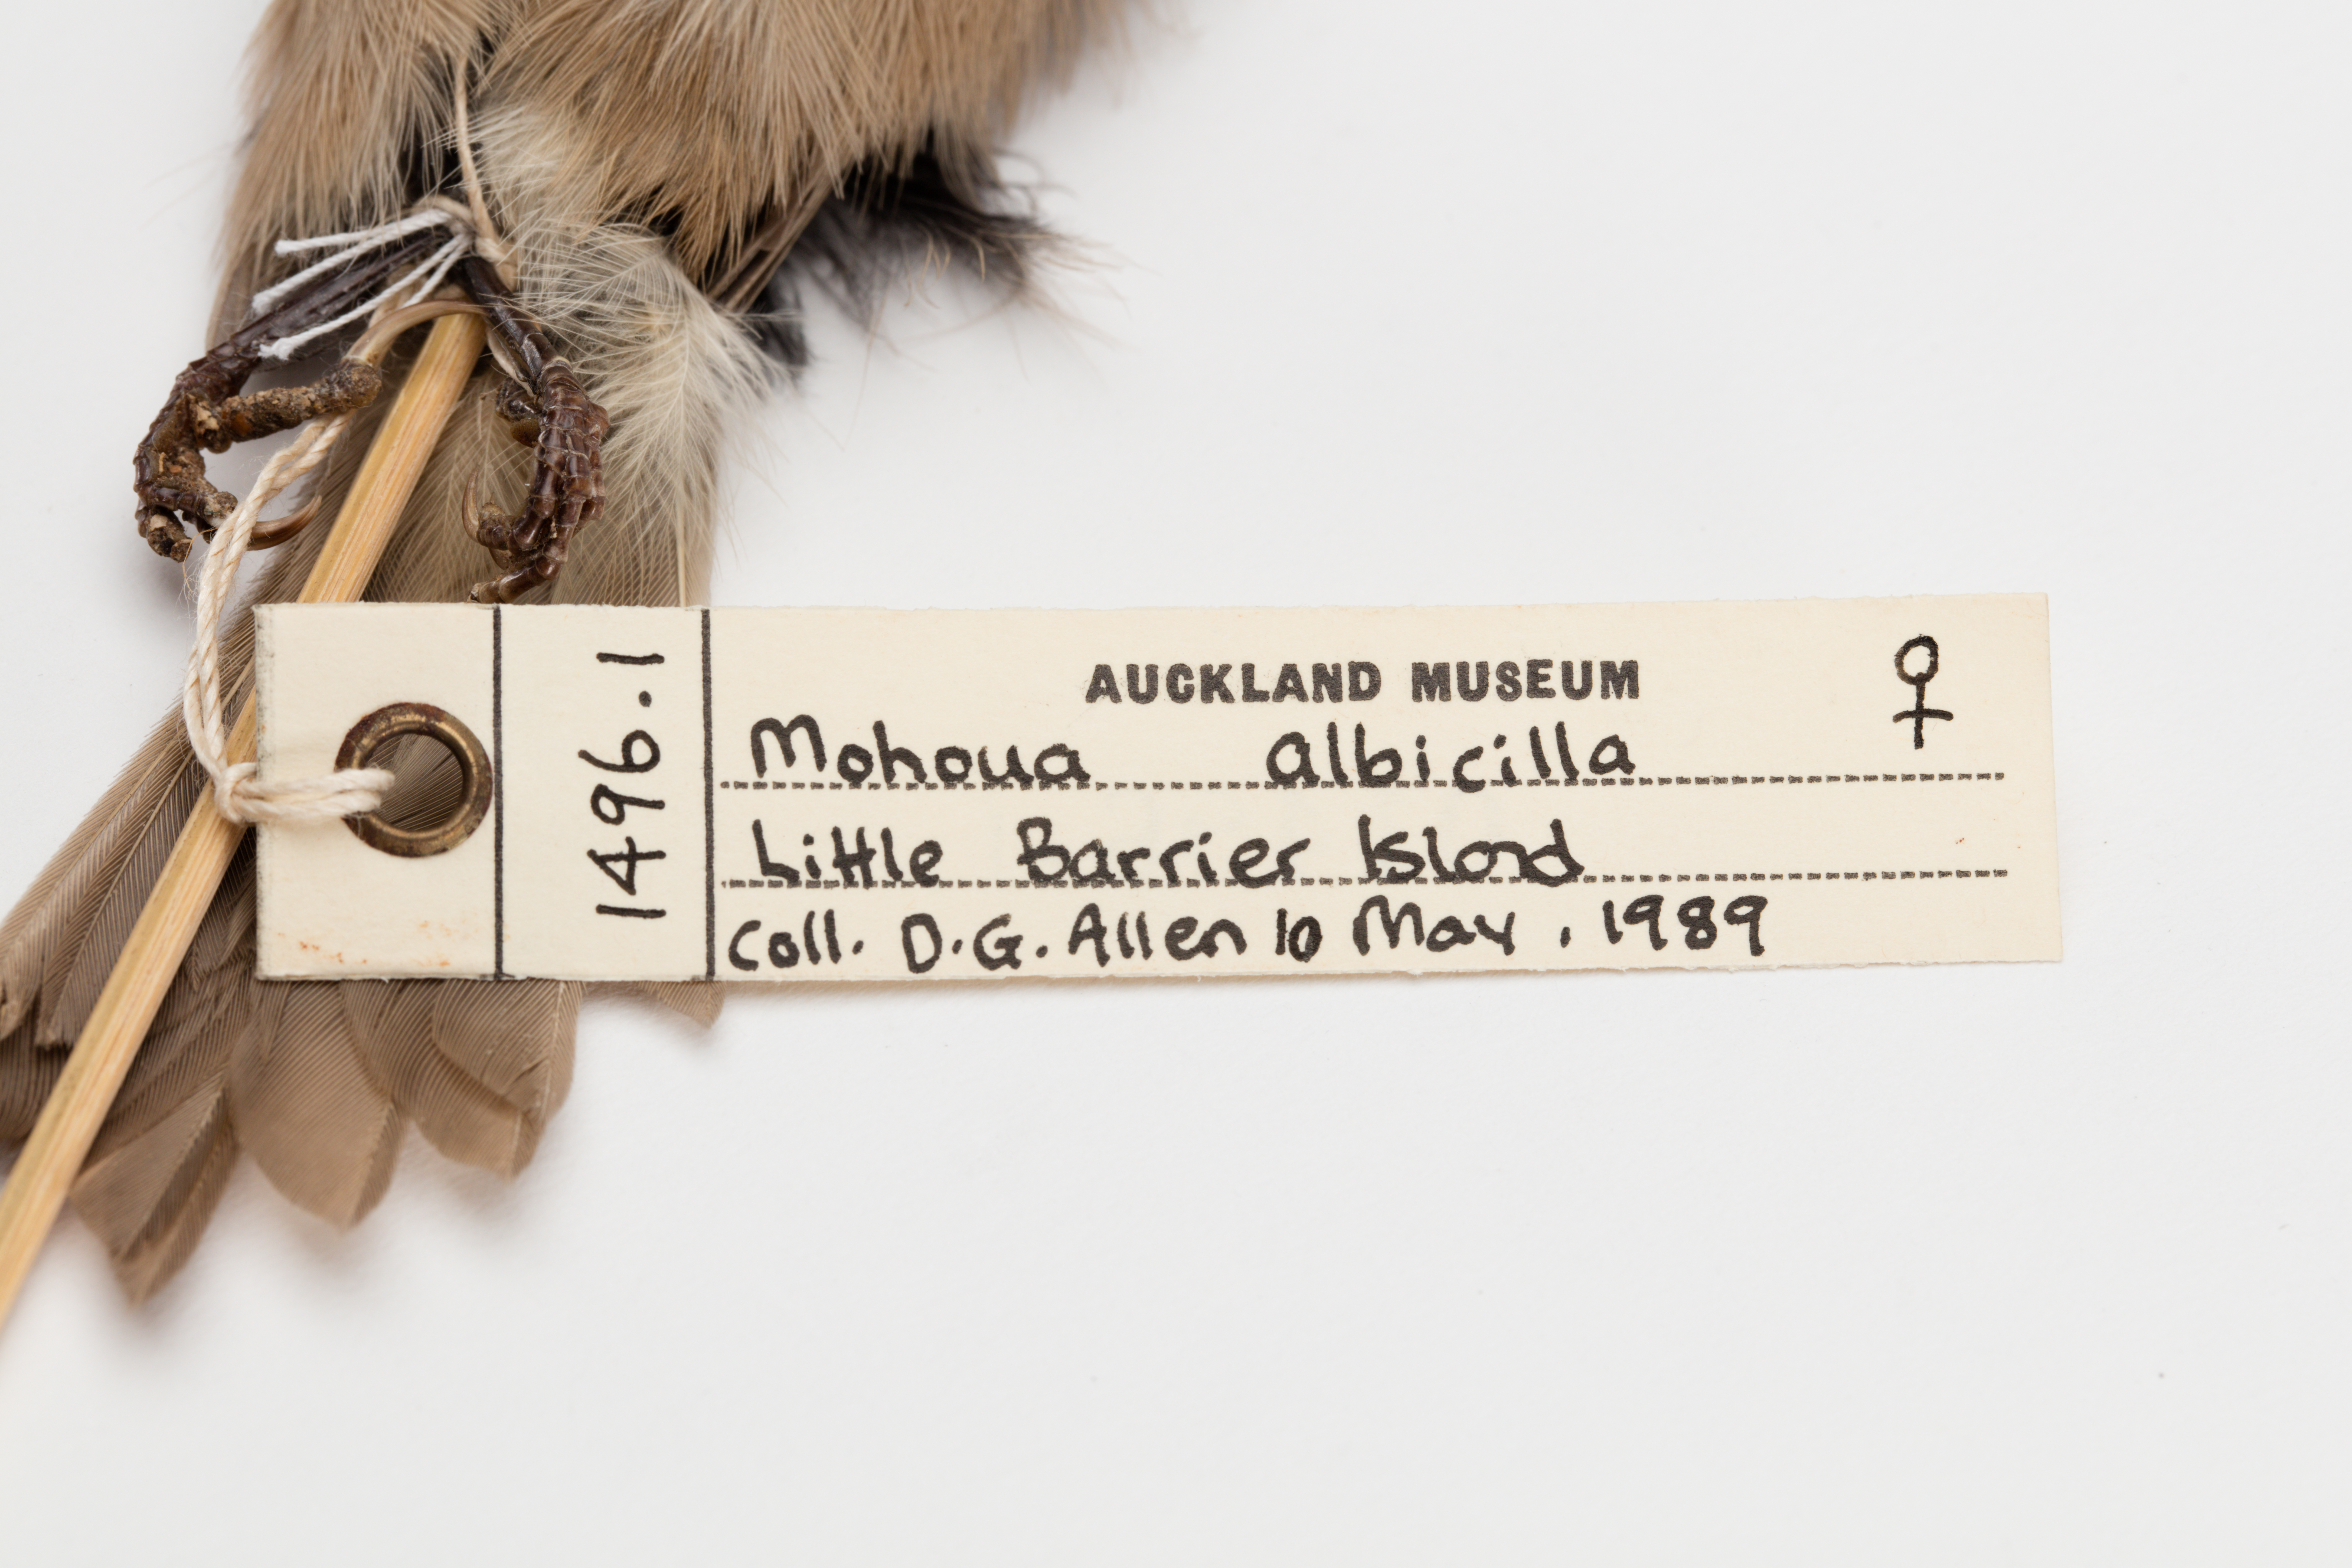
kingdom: Animalia
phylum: Chordata
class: Aves
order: Passeriformes
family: Acanthizidae
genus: Mohoua
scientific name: Mohoua albicilla
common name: Whitehead
